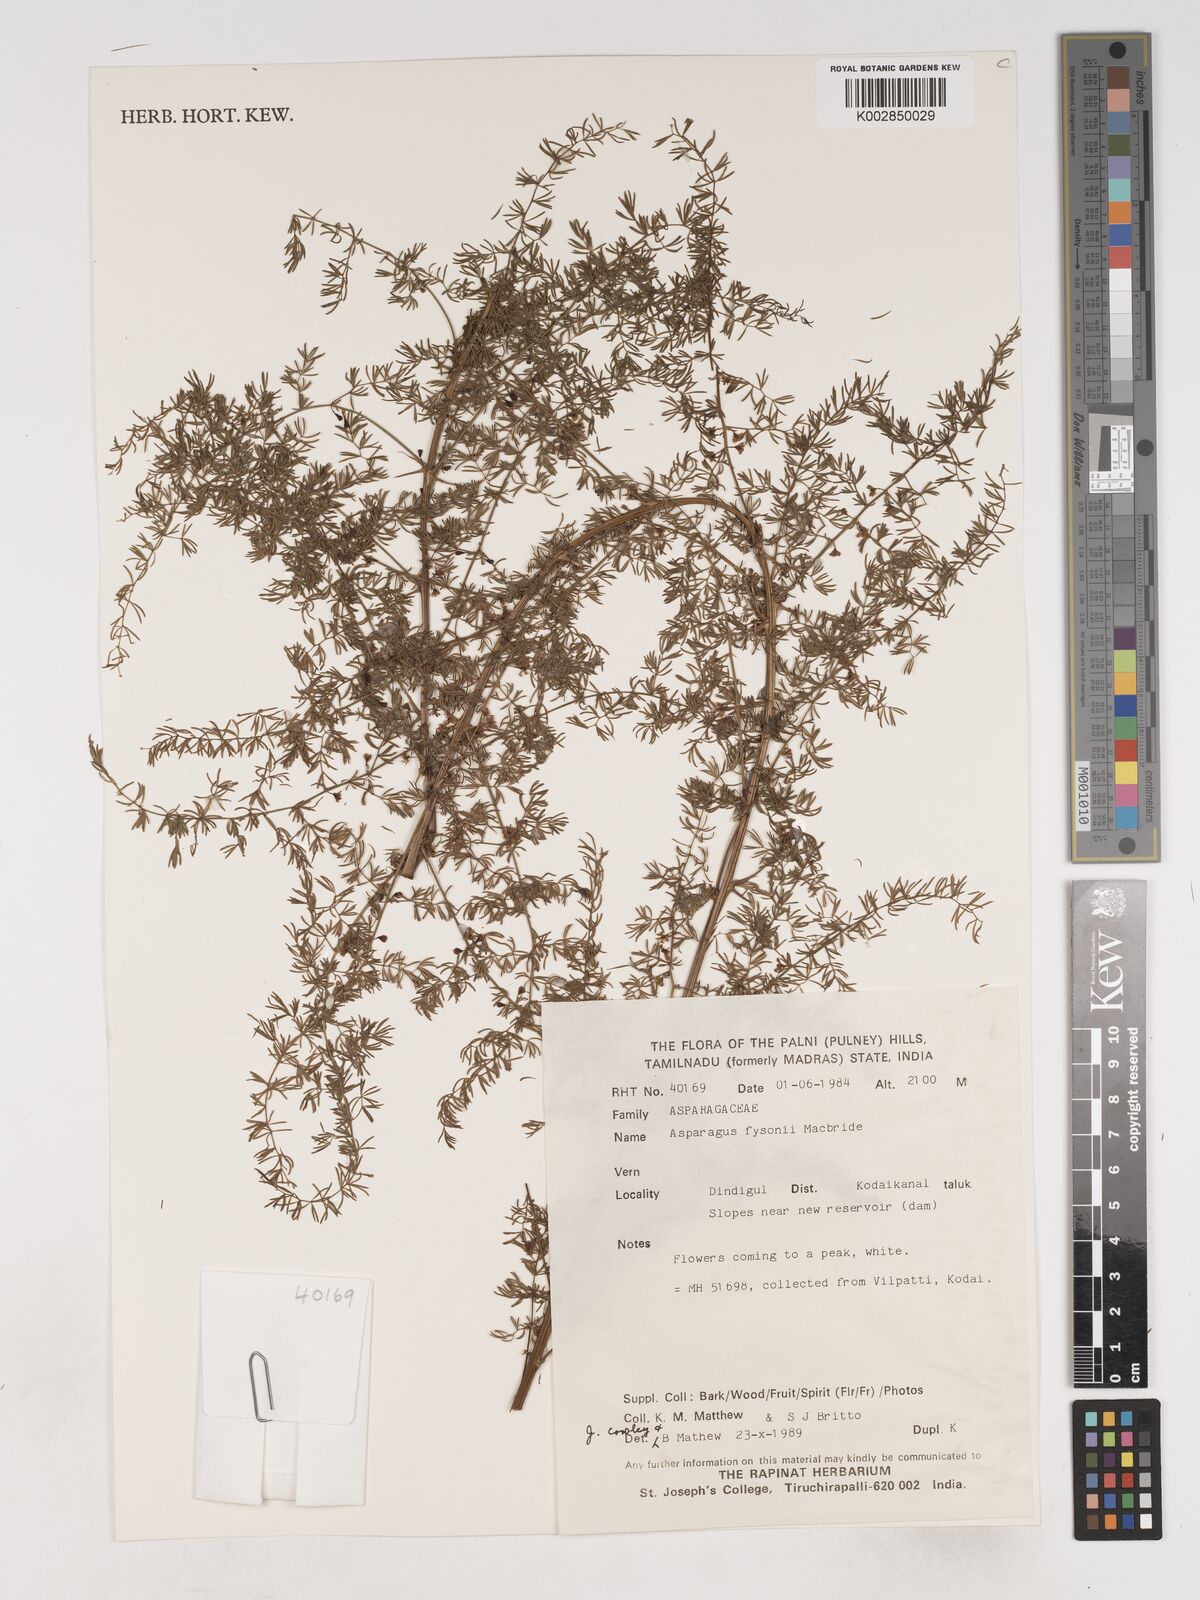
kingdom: Plantae
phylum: Tracheophyta
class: Liliopsida
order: Asparagales
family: Asparagaceae
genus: Asparagus
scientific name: Asparagus fysonii
